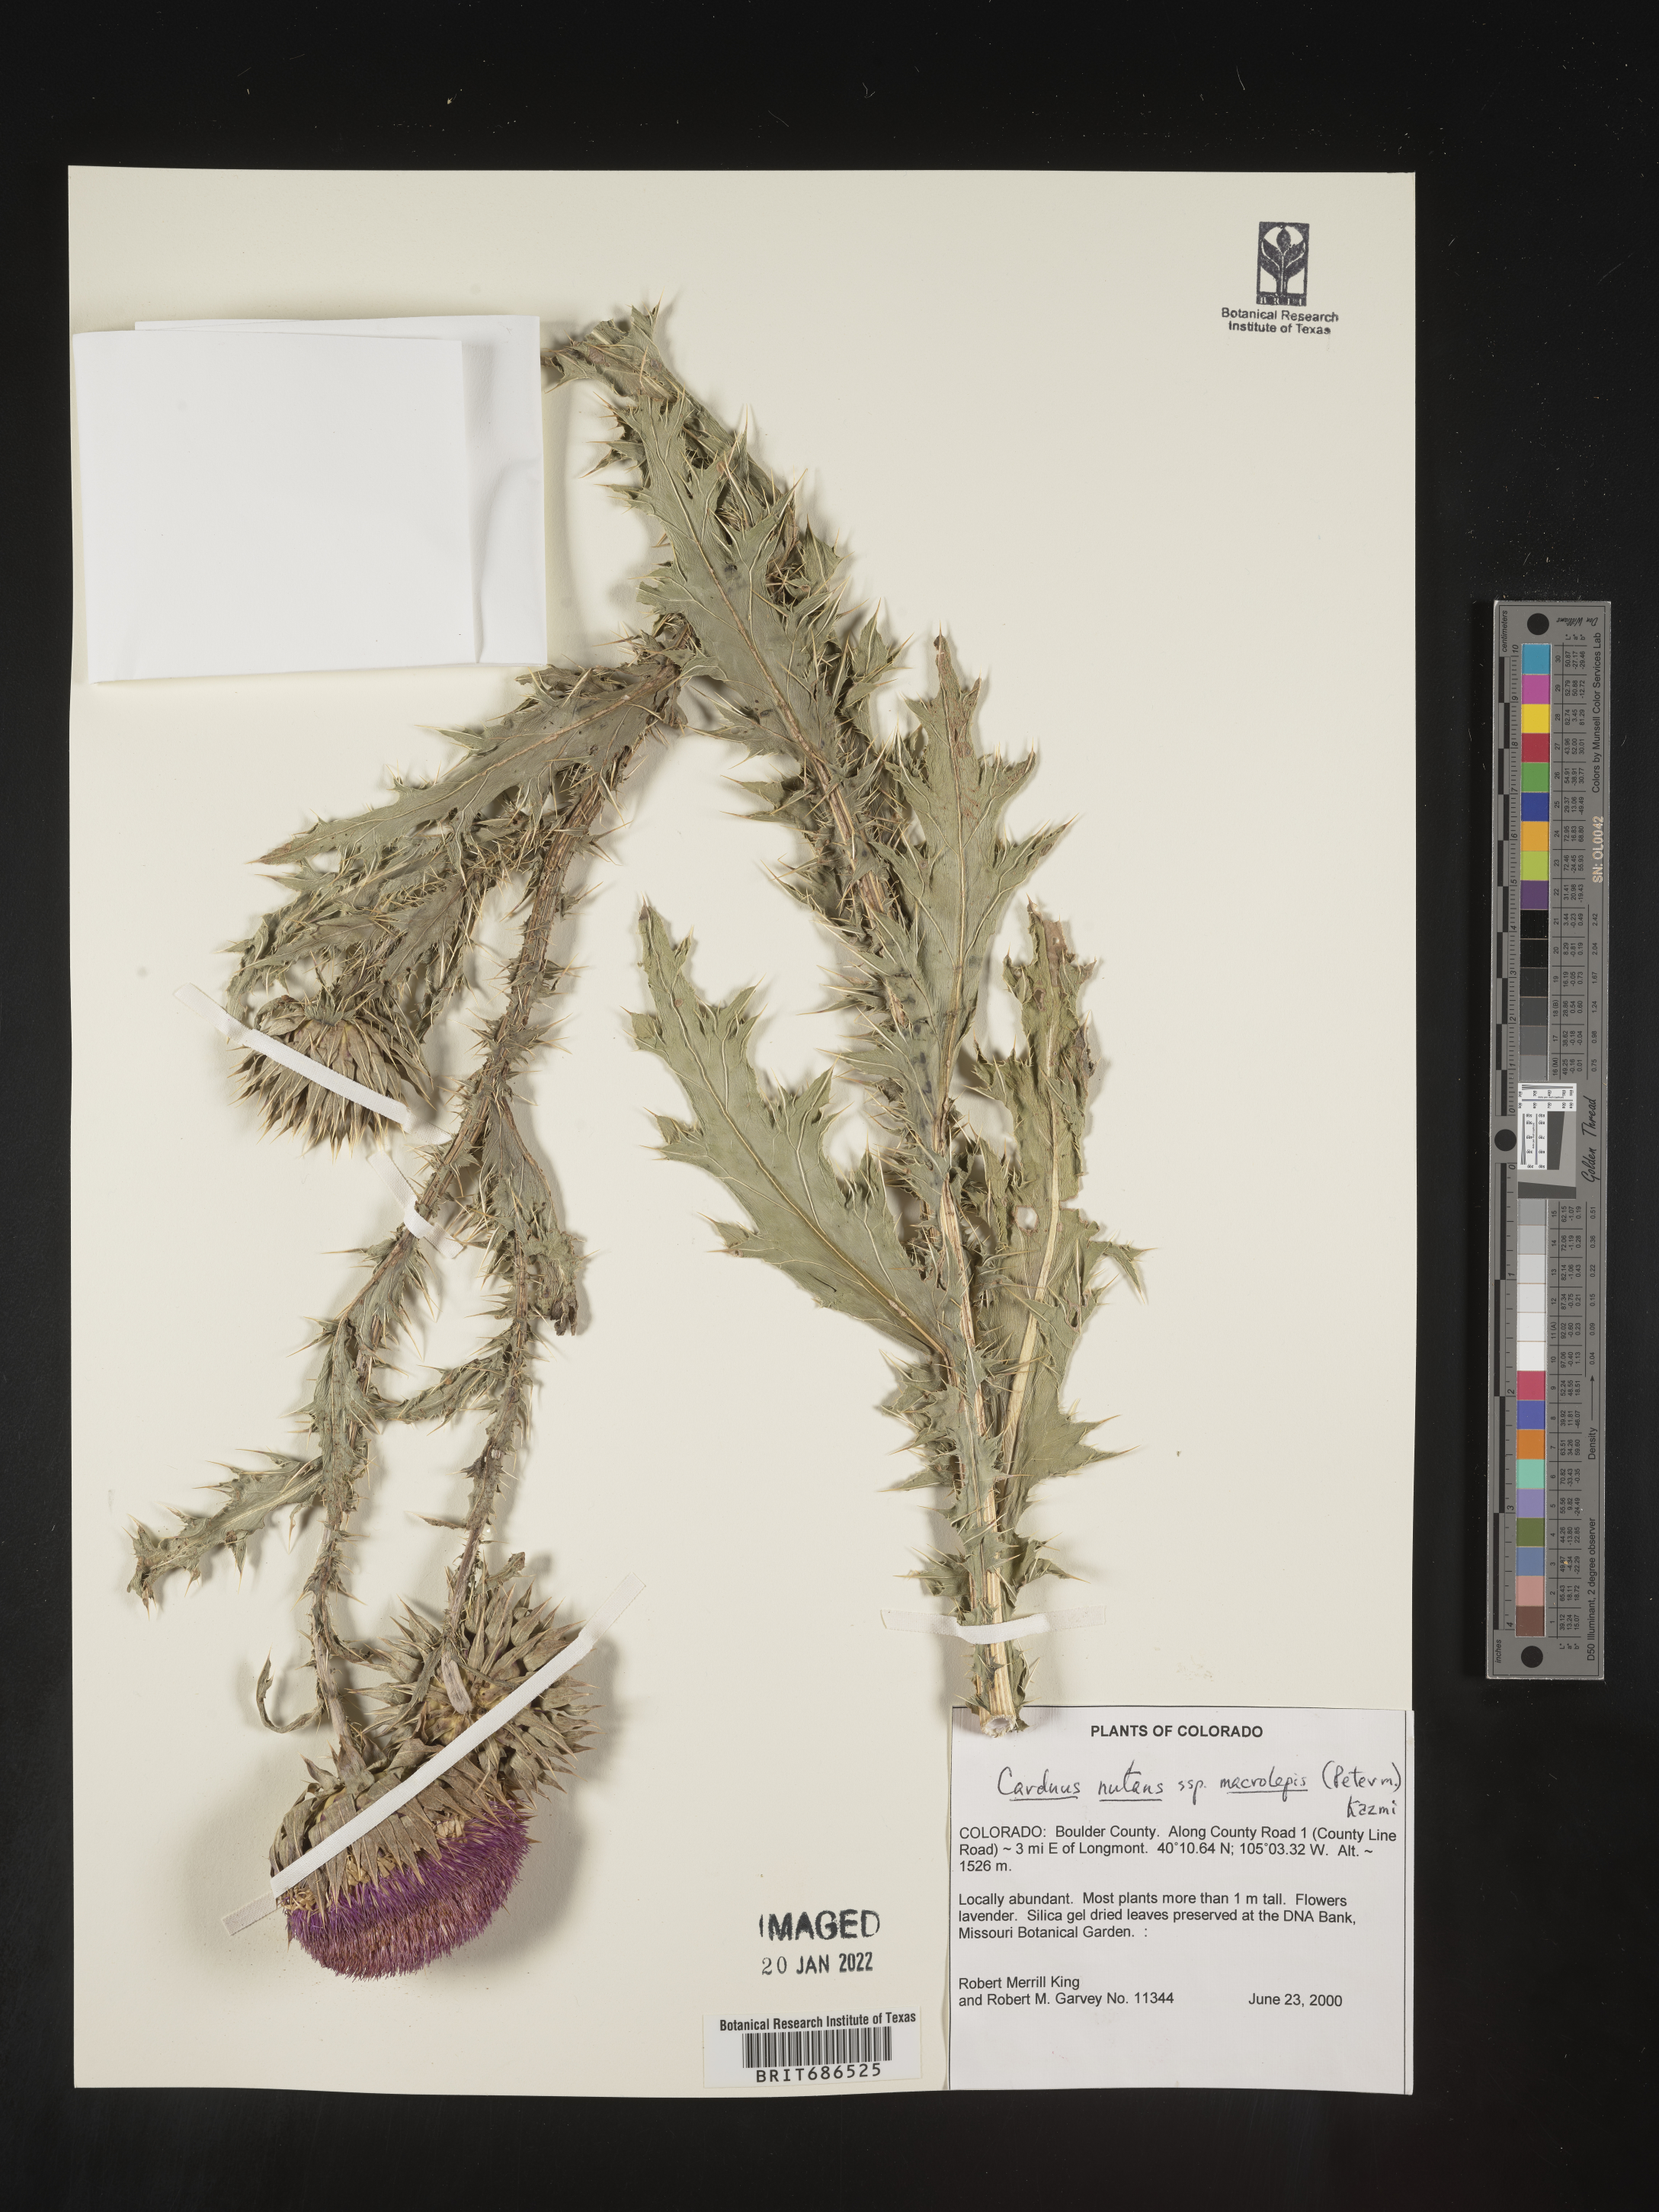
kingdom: Plantae
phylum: Tracheophyta
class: Magnoliopsida
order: Asterales
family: Asteraceae
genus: Carduus
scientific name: Carduus nutans
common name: Musk thistle
